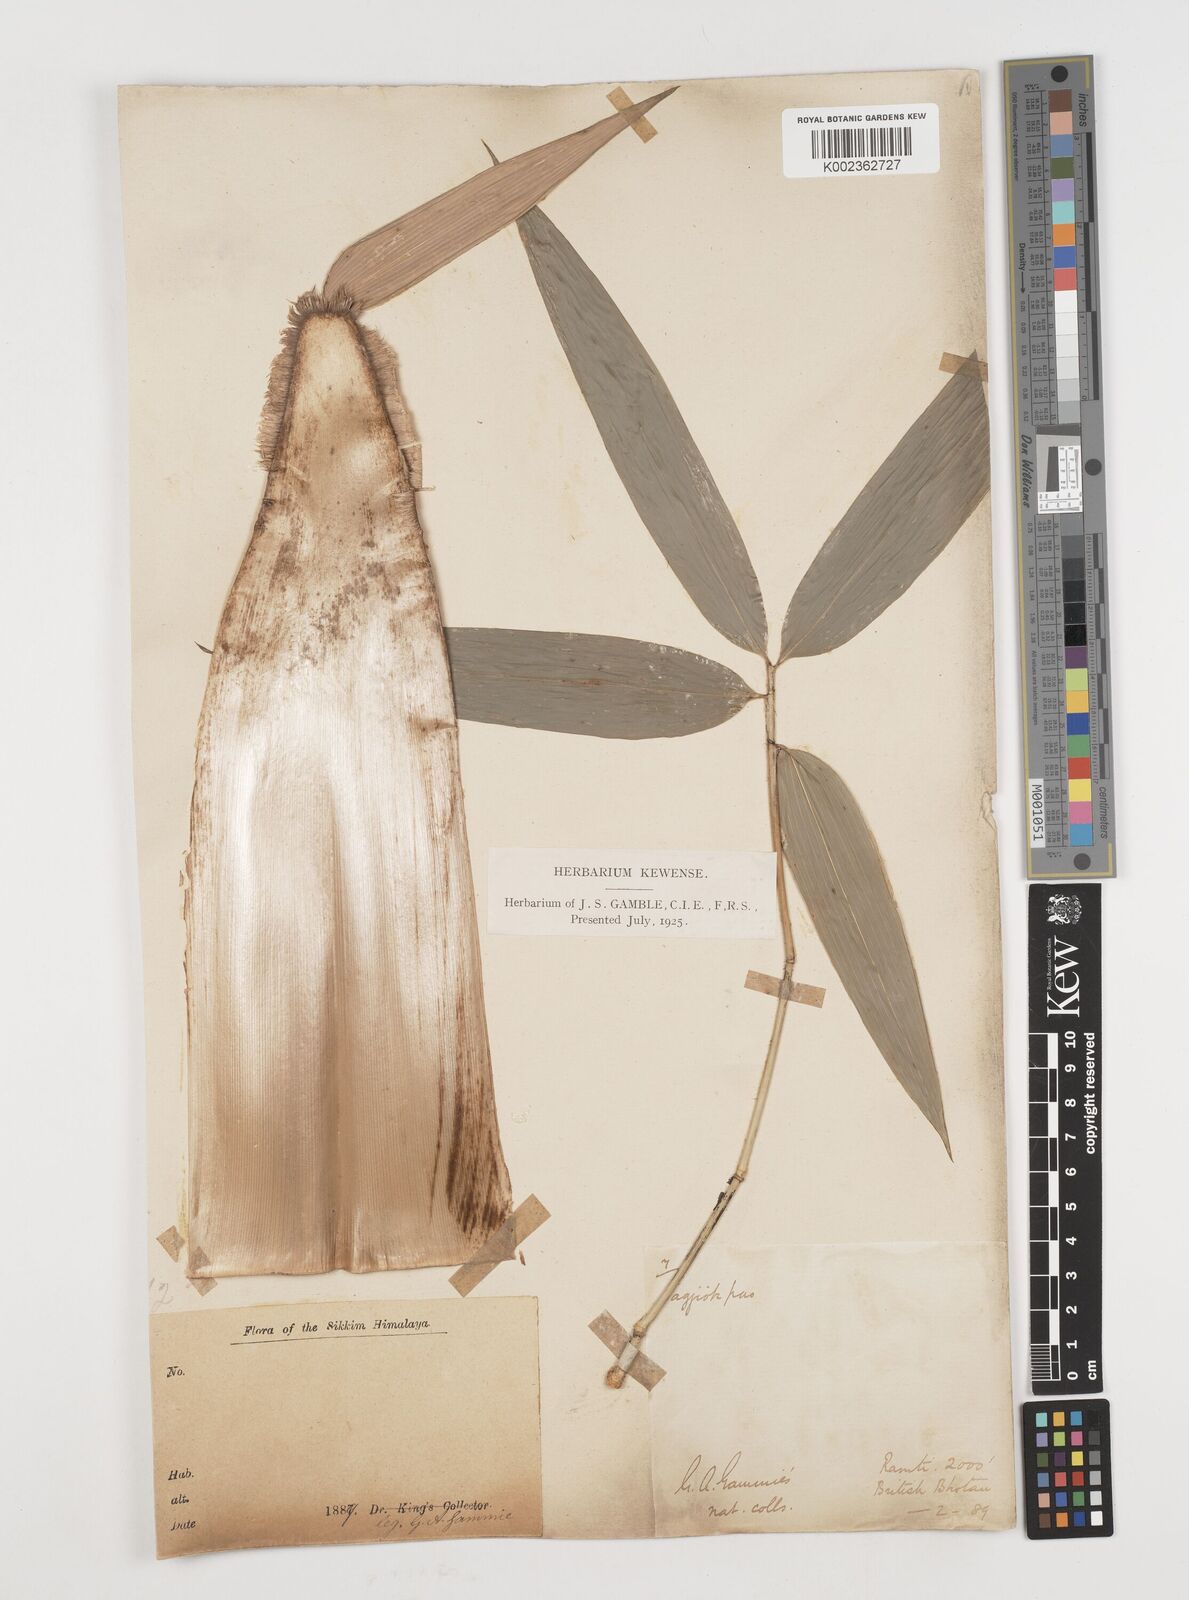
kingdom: Plantae
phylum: Tracheophyta
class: Liliopsida
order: Poales
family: Poaceae
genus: Ampelocalamus
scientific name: Ampelocalamus patellaris
